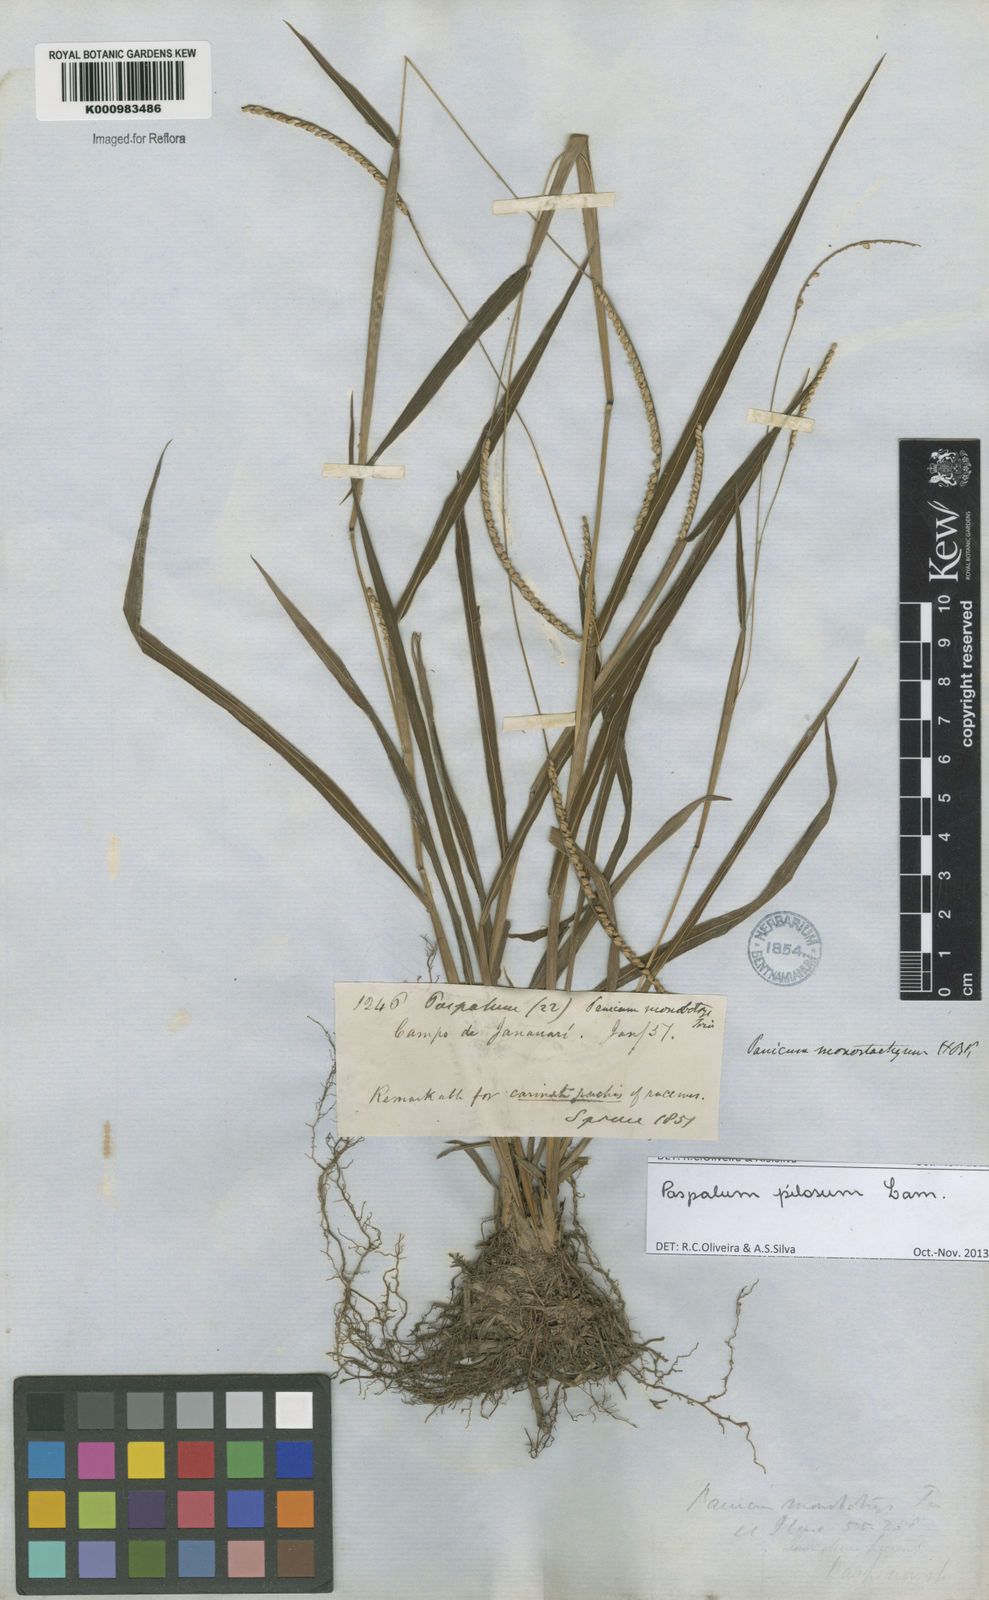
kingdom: Plantae
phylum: Tracheophyta
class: Liliopsida
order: Poales
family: Poaceae
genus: Paspalum
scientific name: Paspalum pilosum
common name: Crowngrass
